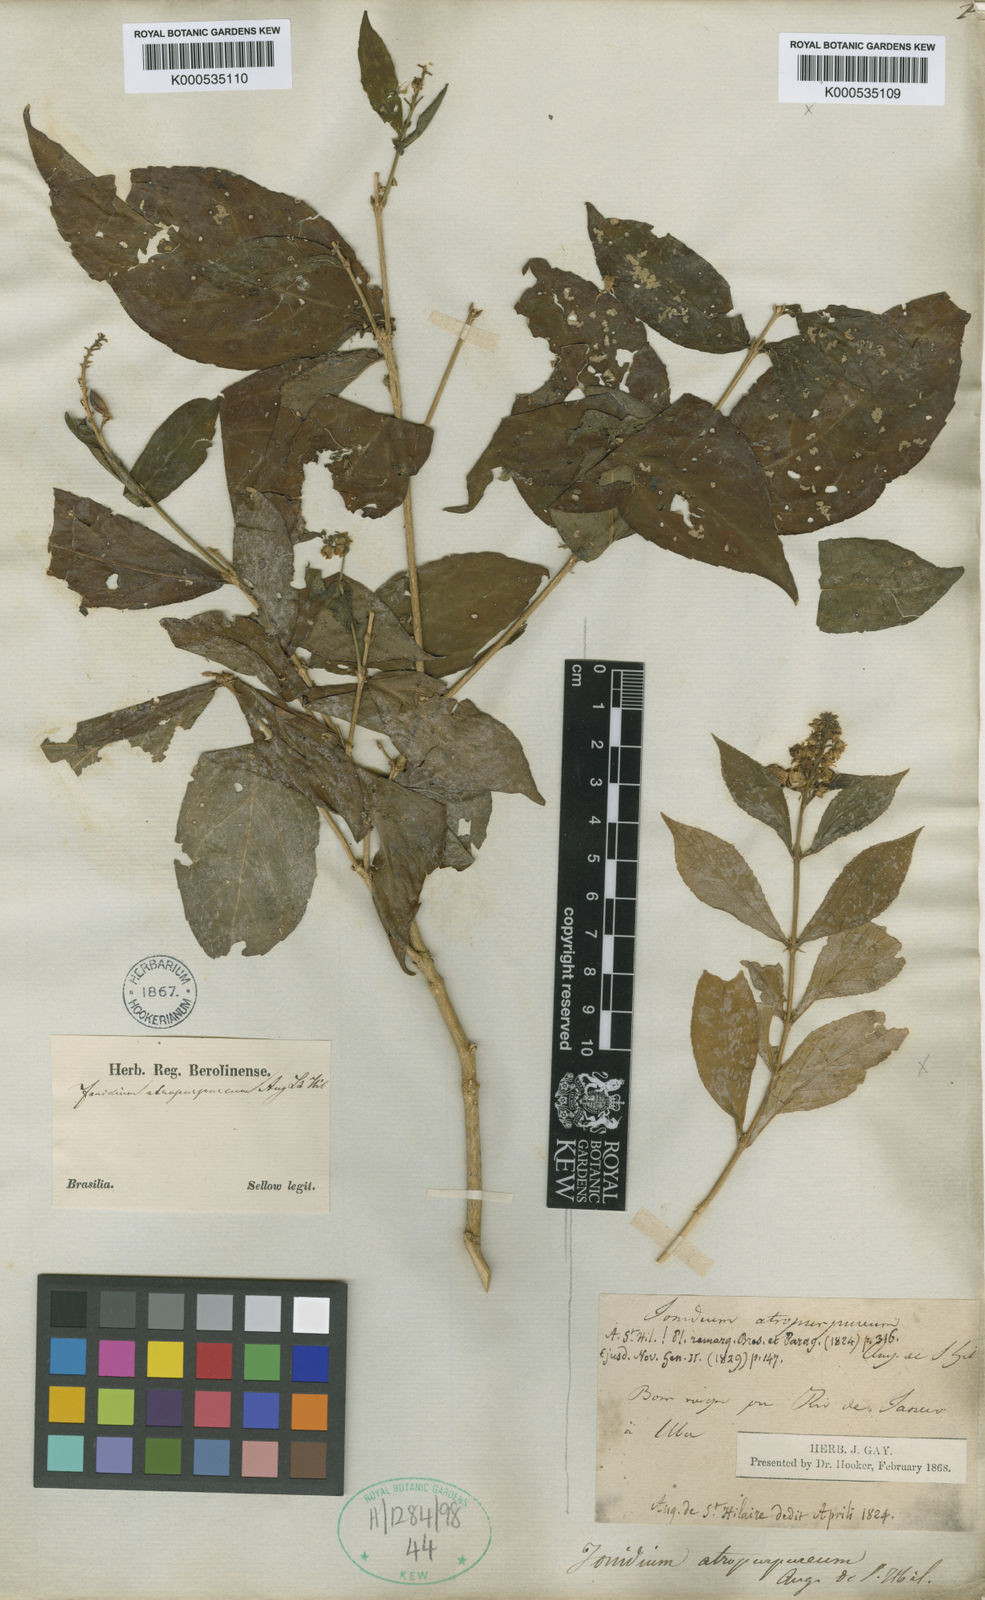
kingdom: Plantae
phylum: Tracheophyta
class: Magnoliopsida
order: Malpighiales
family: Violaceae
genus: Pombalia
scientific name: Pombalia atropurpurea
